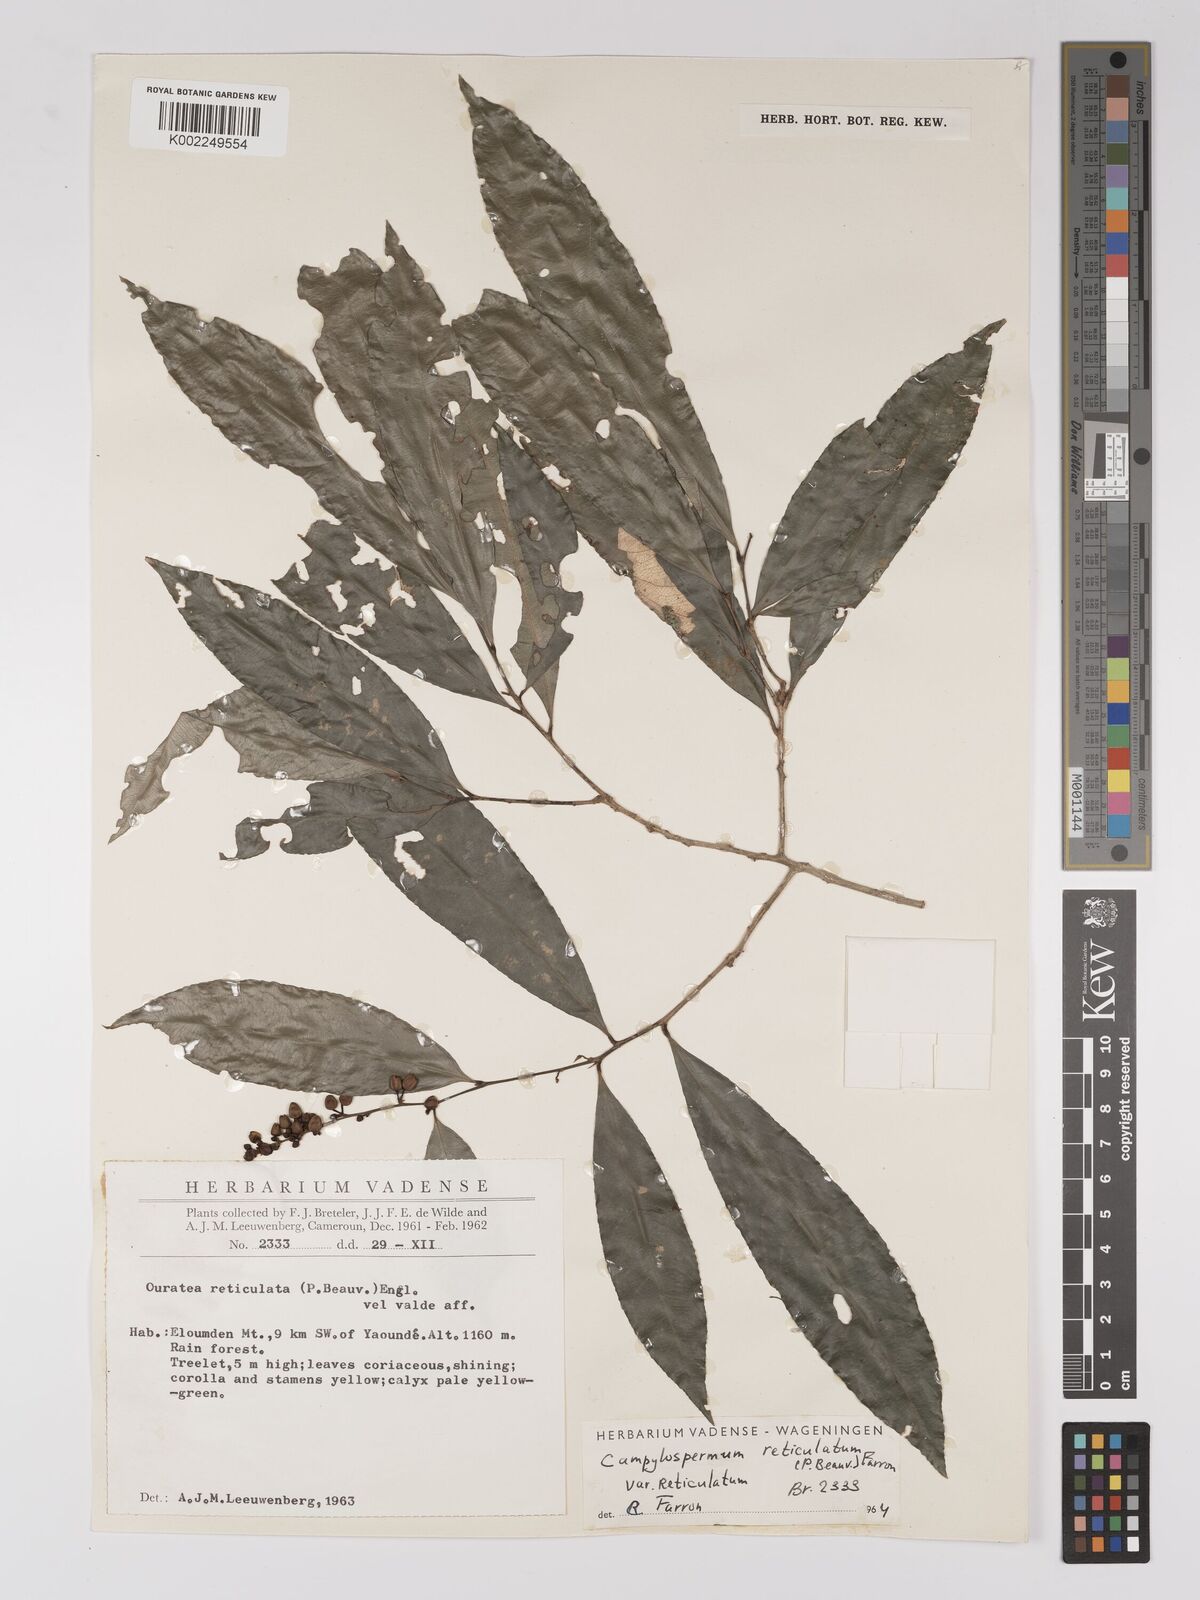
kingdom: Plantae
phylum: Tracheophyta
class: Magnoliopsida
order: Malpighiales
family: Ochnaceae
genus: Campylospermum
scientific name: Campylospermum reticulatum
